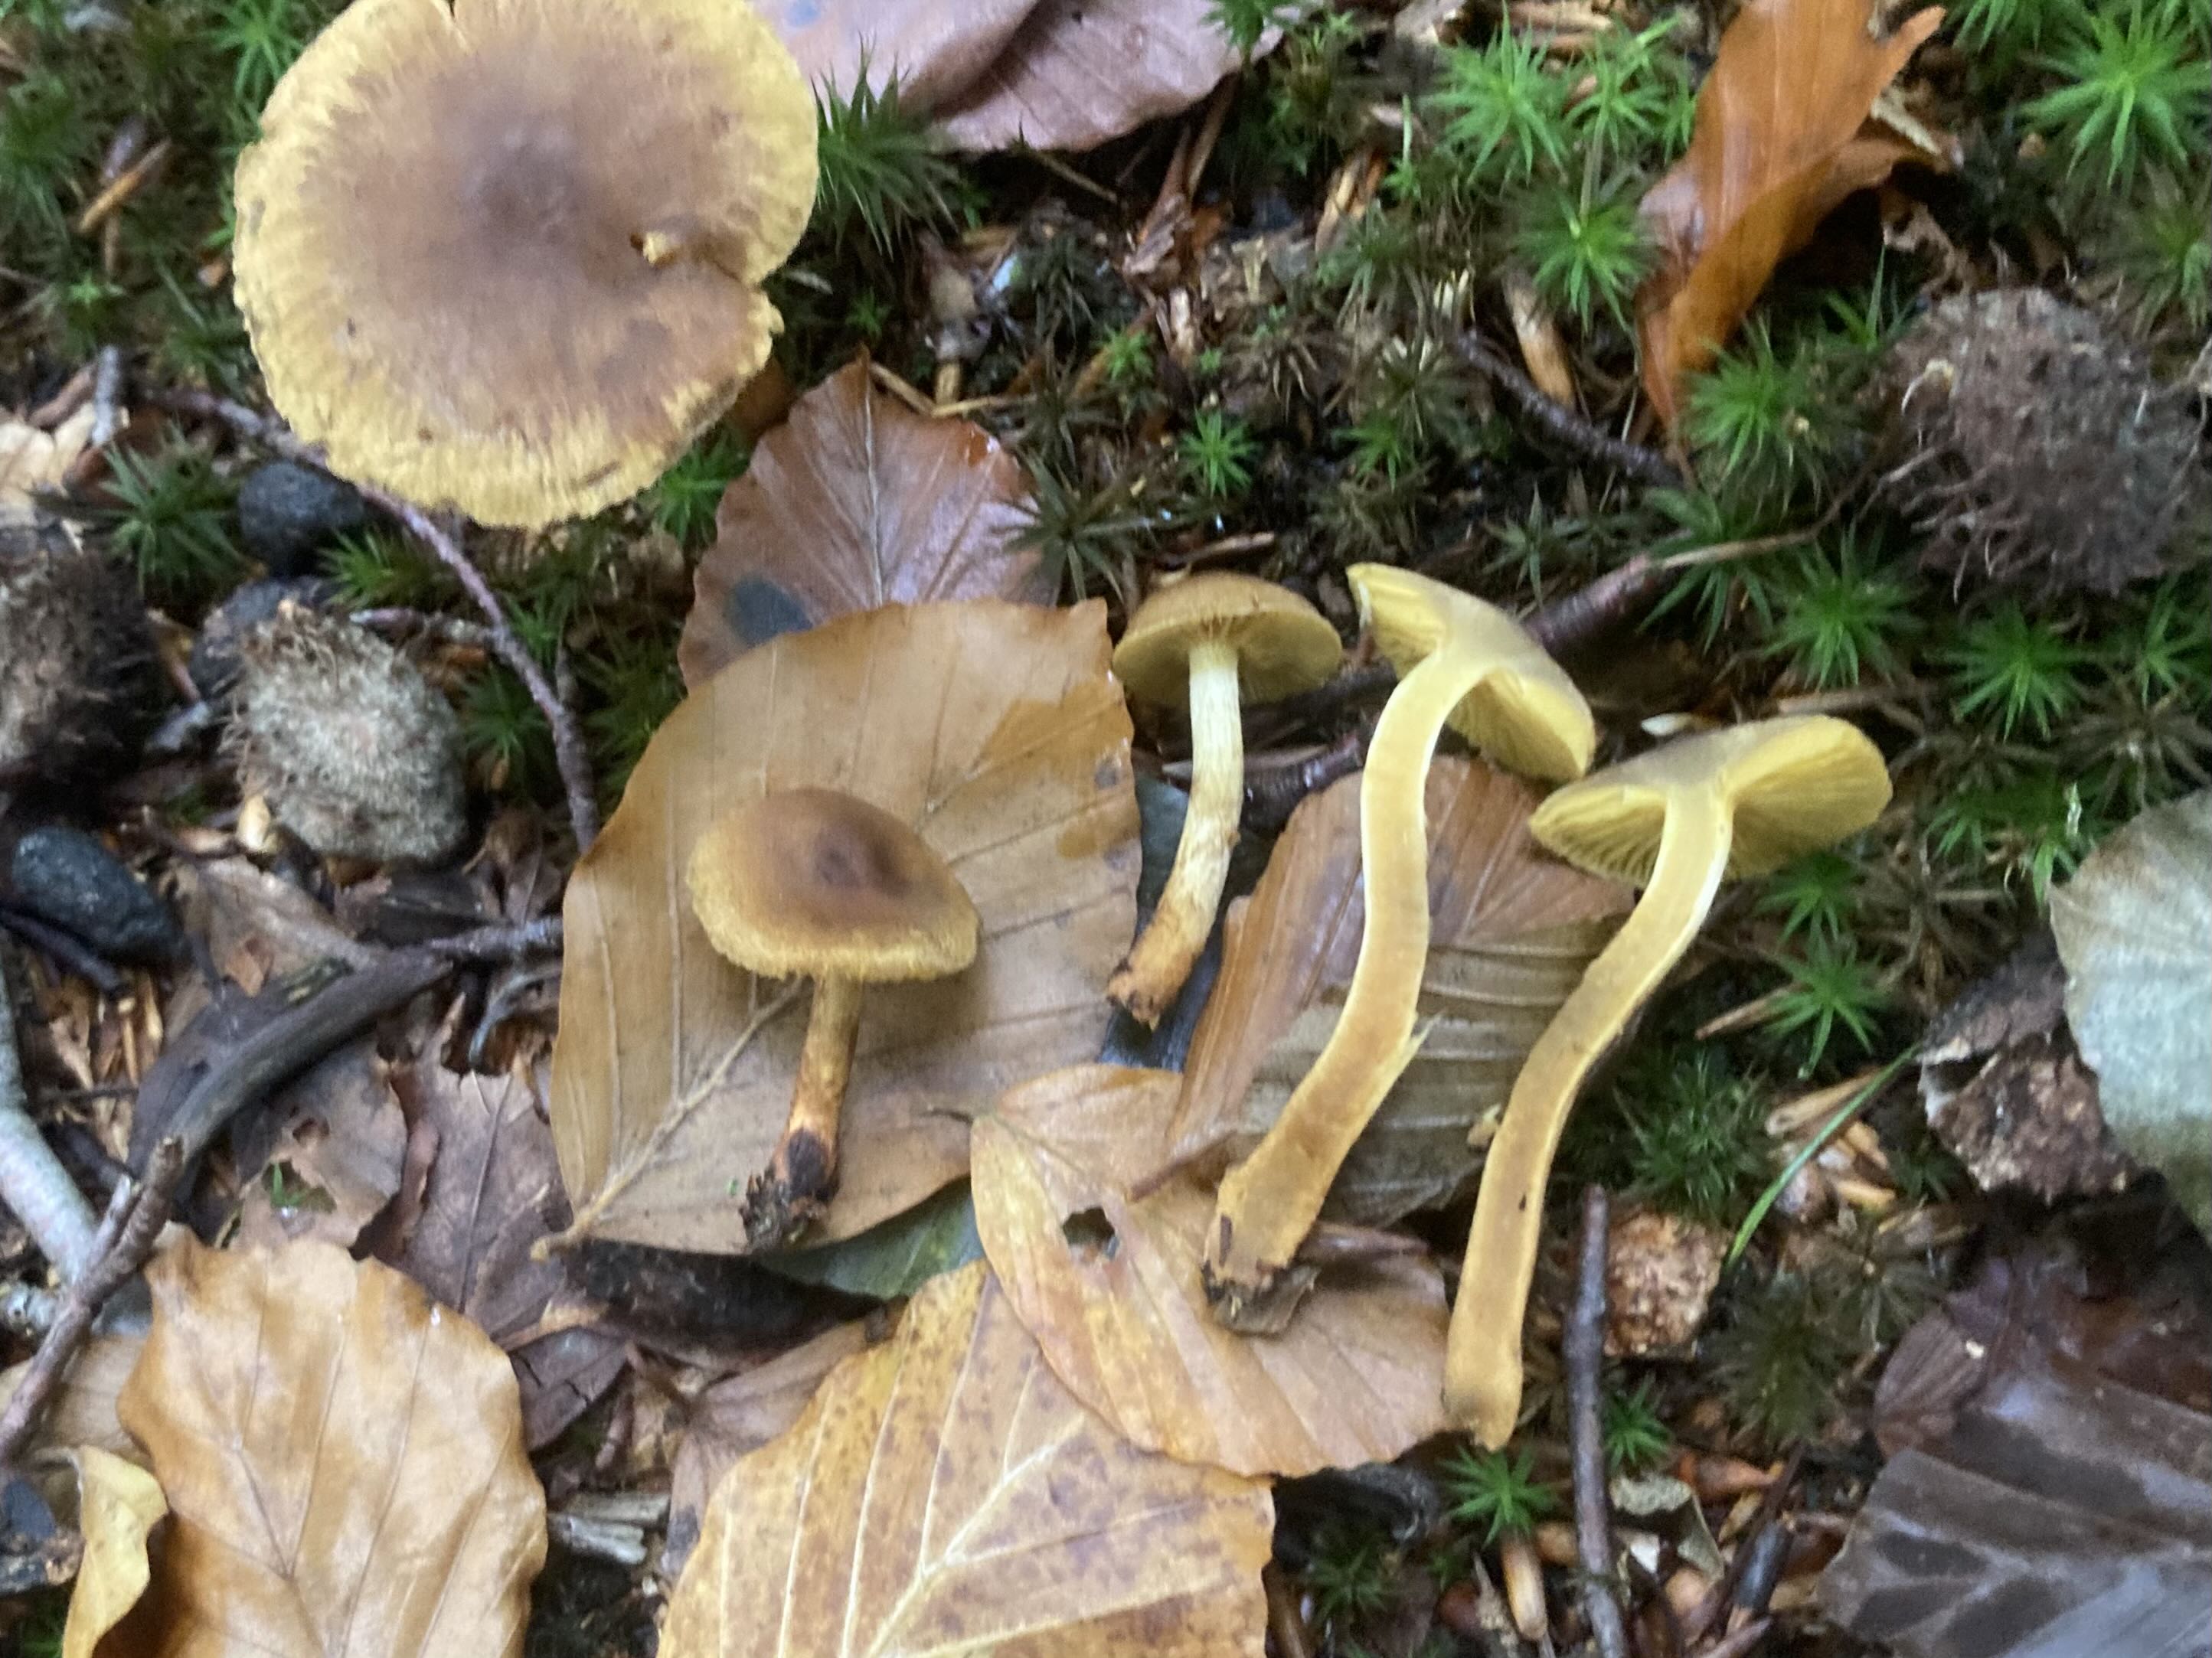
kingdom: Fungi
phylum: Basidiomycota
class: Agaricomycetes
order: Agaricales
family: Cortinariaceae
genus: Cortinarius
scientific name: Cortinarius
